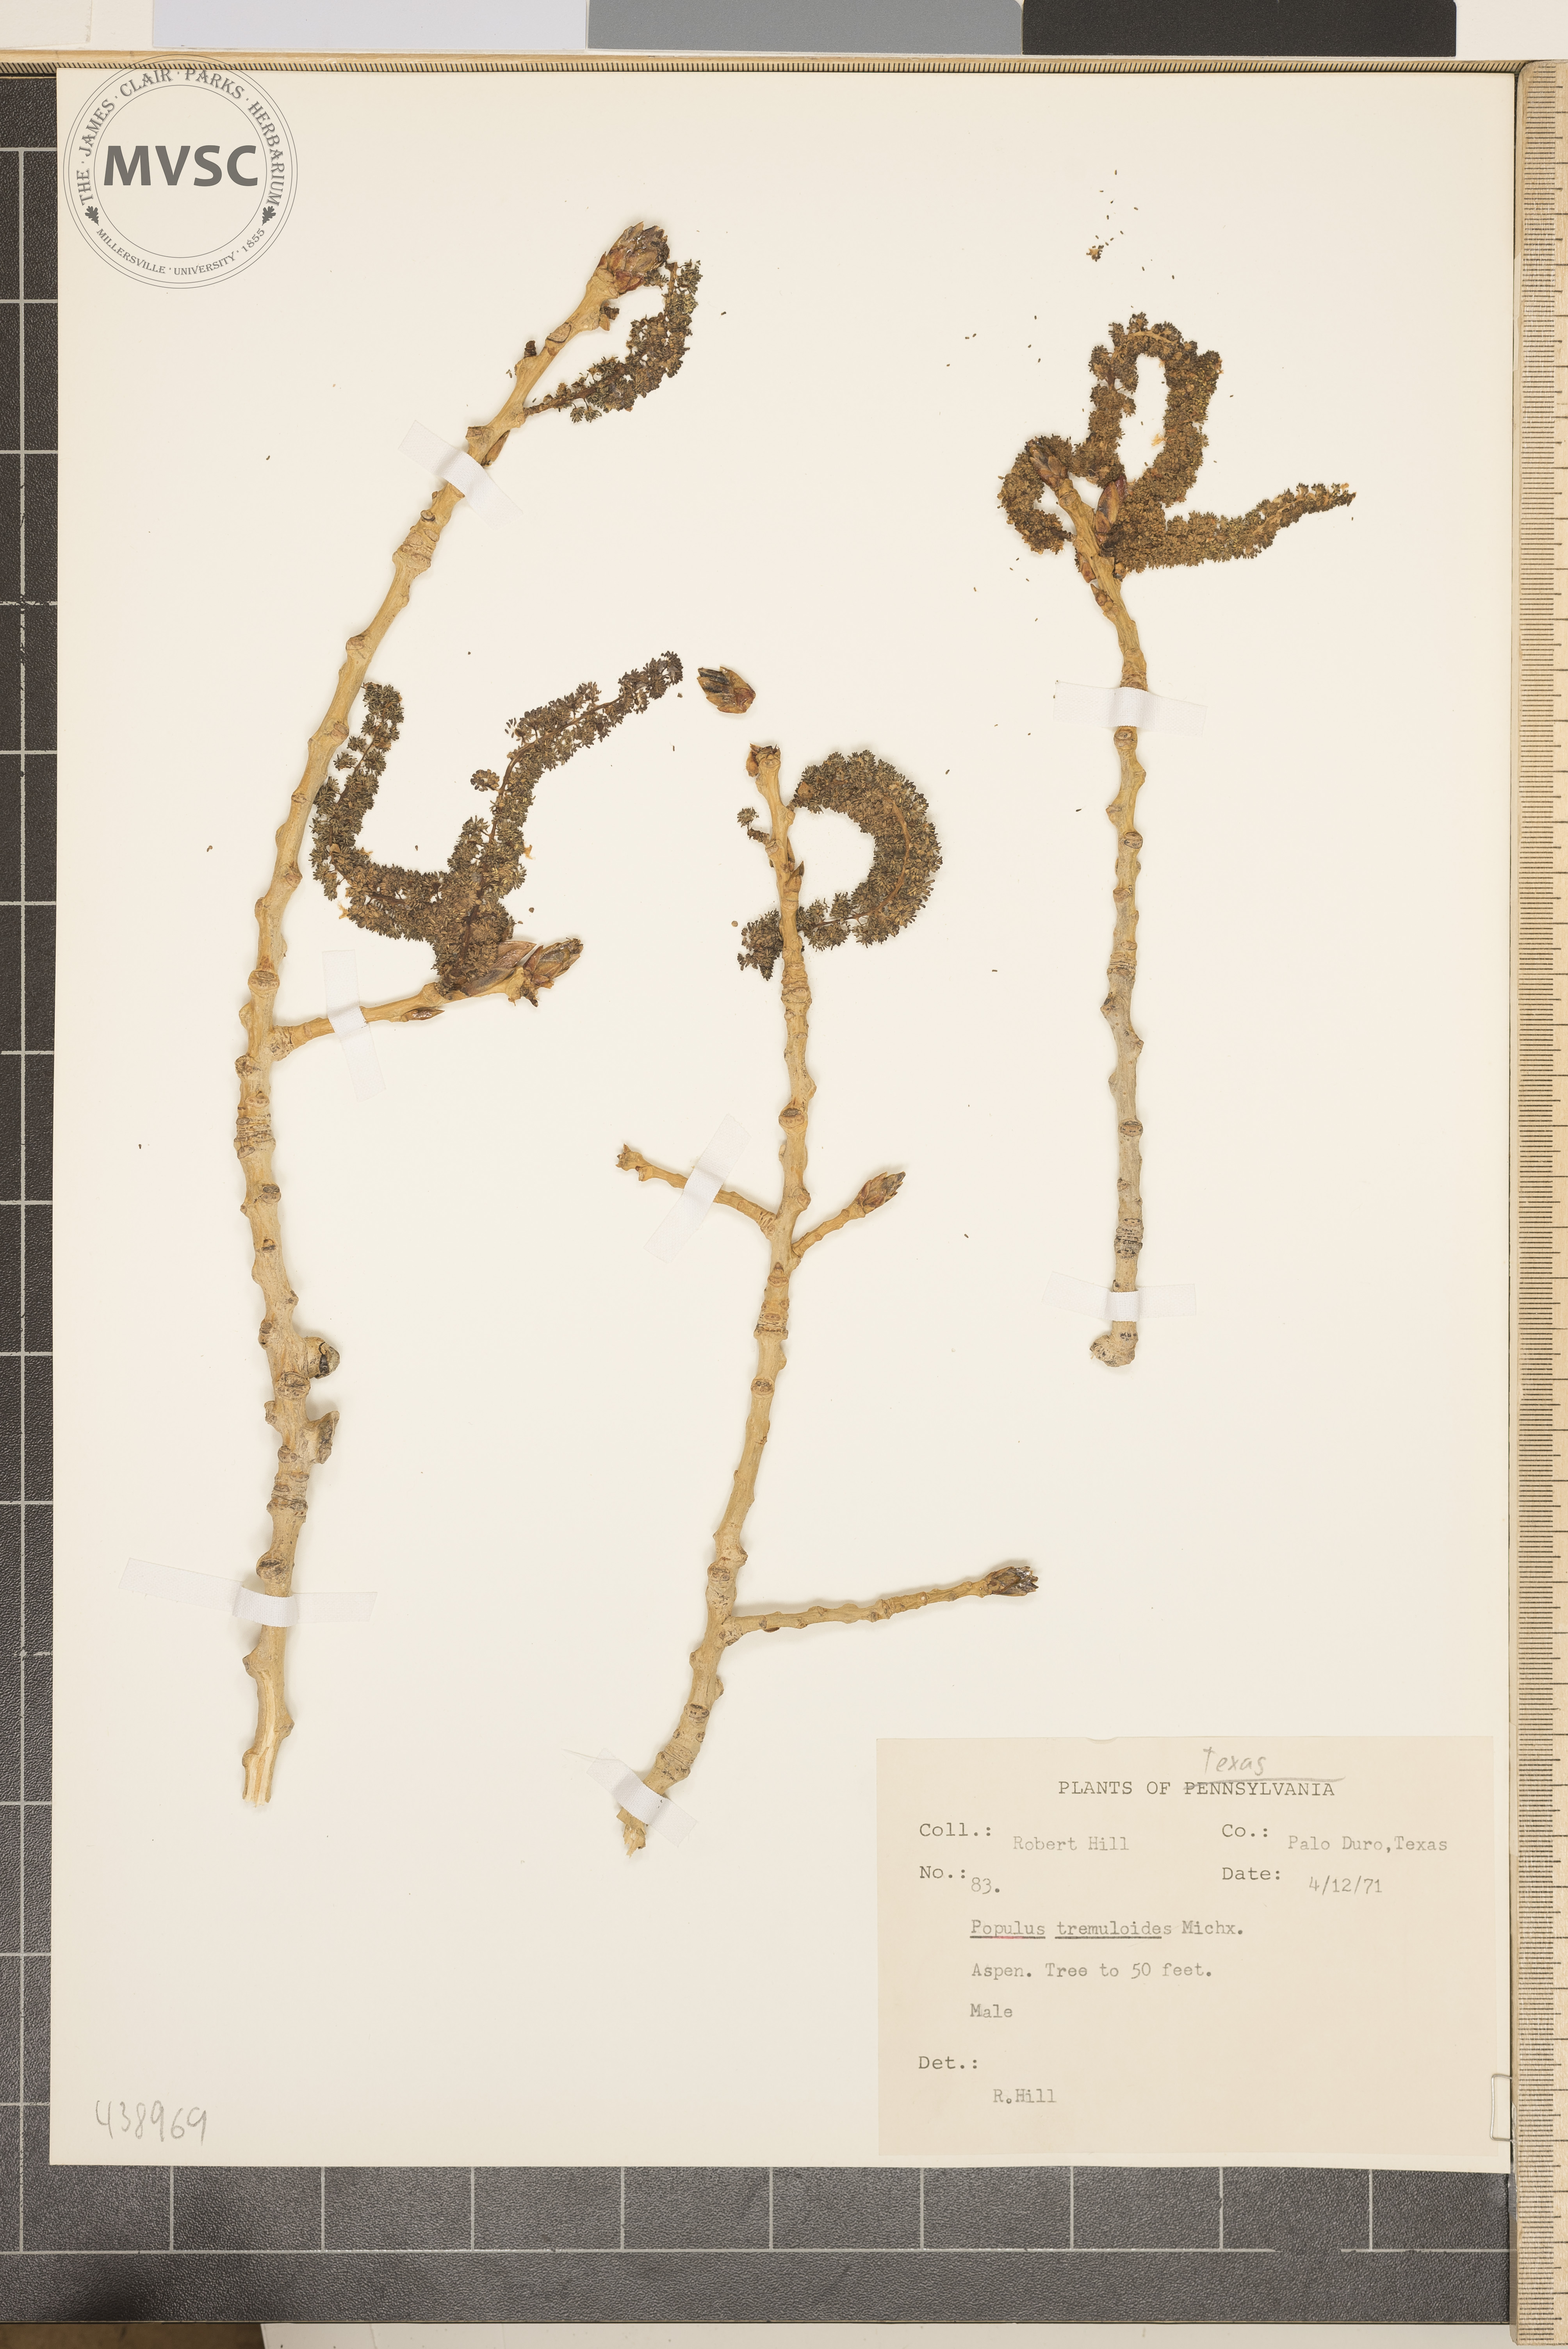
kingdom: Plantae
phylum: Tracheophyta
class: Magnoliopsida
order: Malpighiales
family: Salicaceae
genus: Populus
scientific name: Populus tremuloides
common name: Aspen
